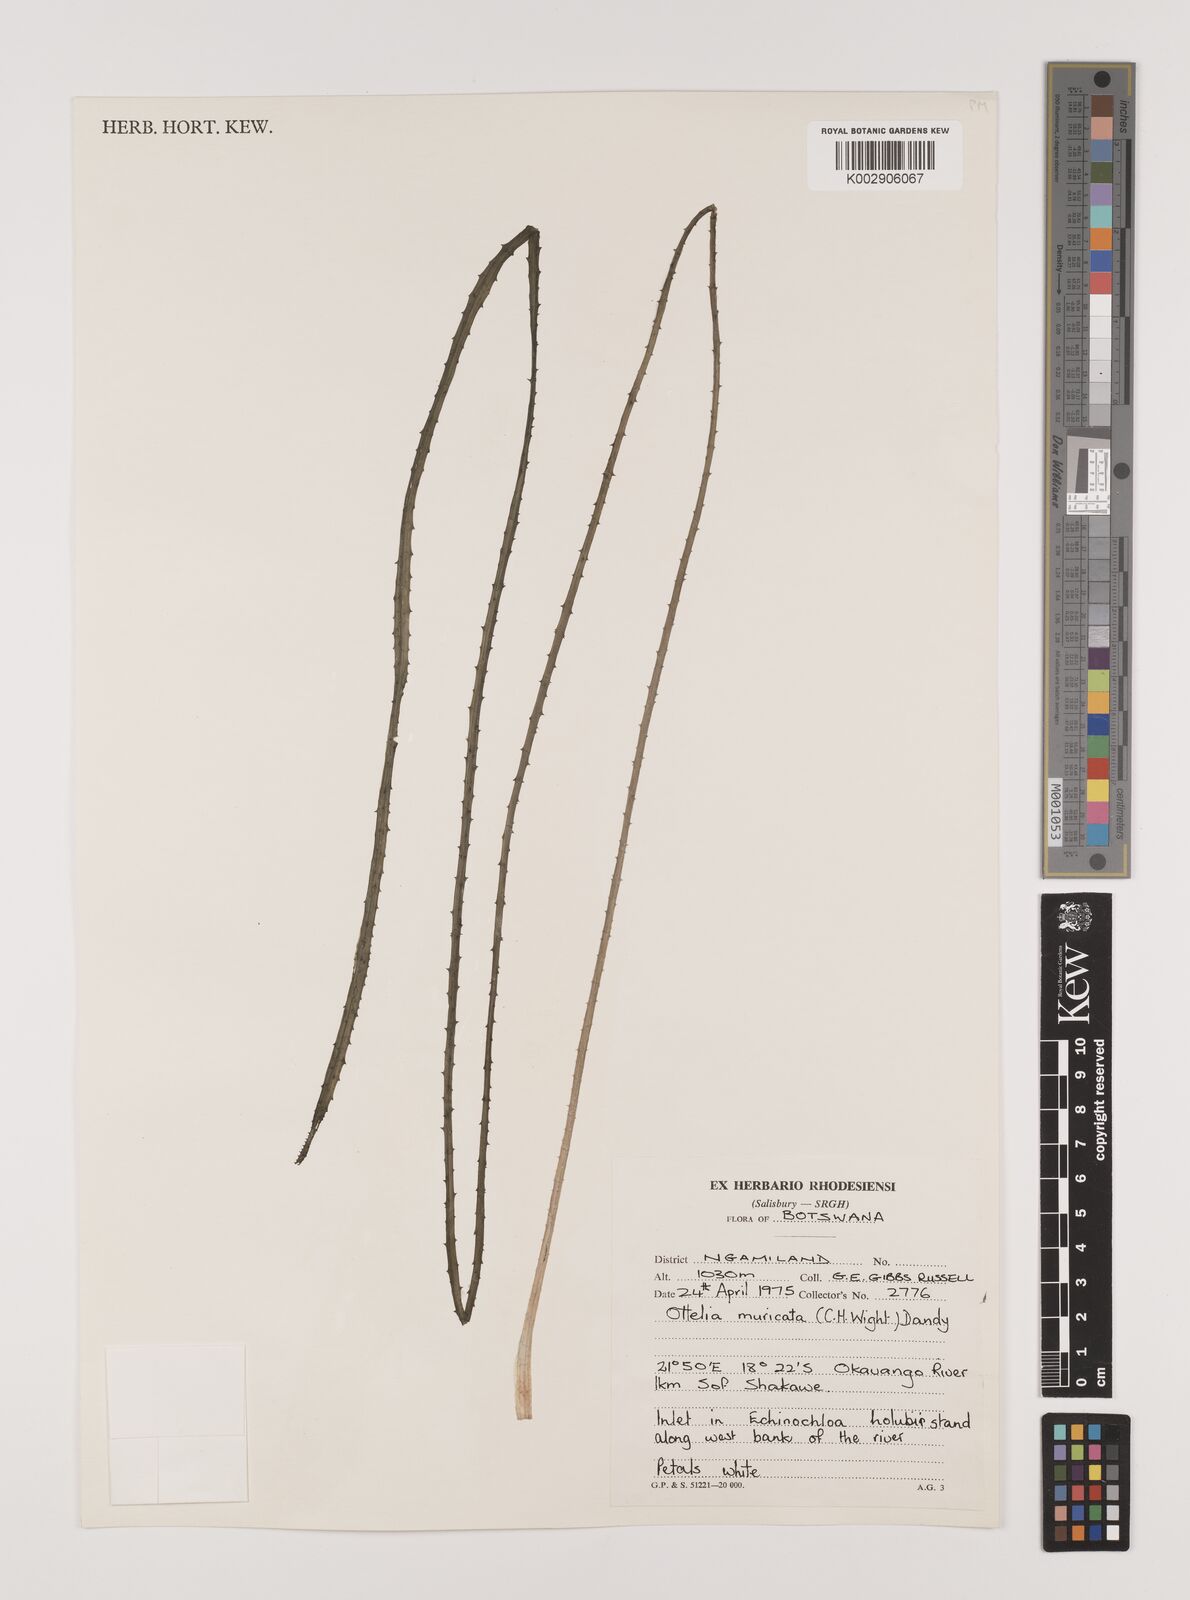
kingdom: Plantae
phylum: Tracheophyta
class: Liliopsida
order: Alismatales
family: Hydrocharitaceae
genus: Ottelia
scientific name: Ottelia muricata
